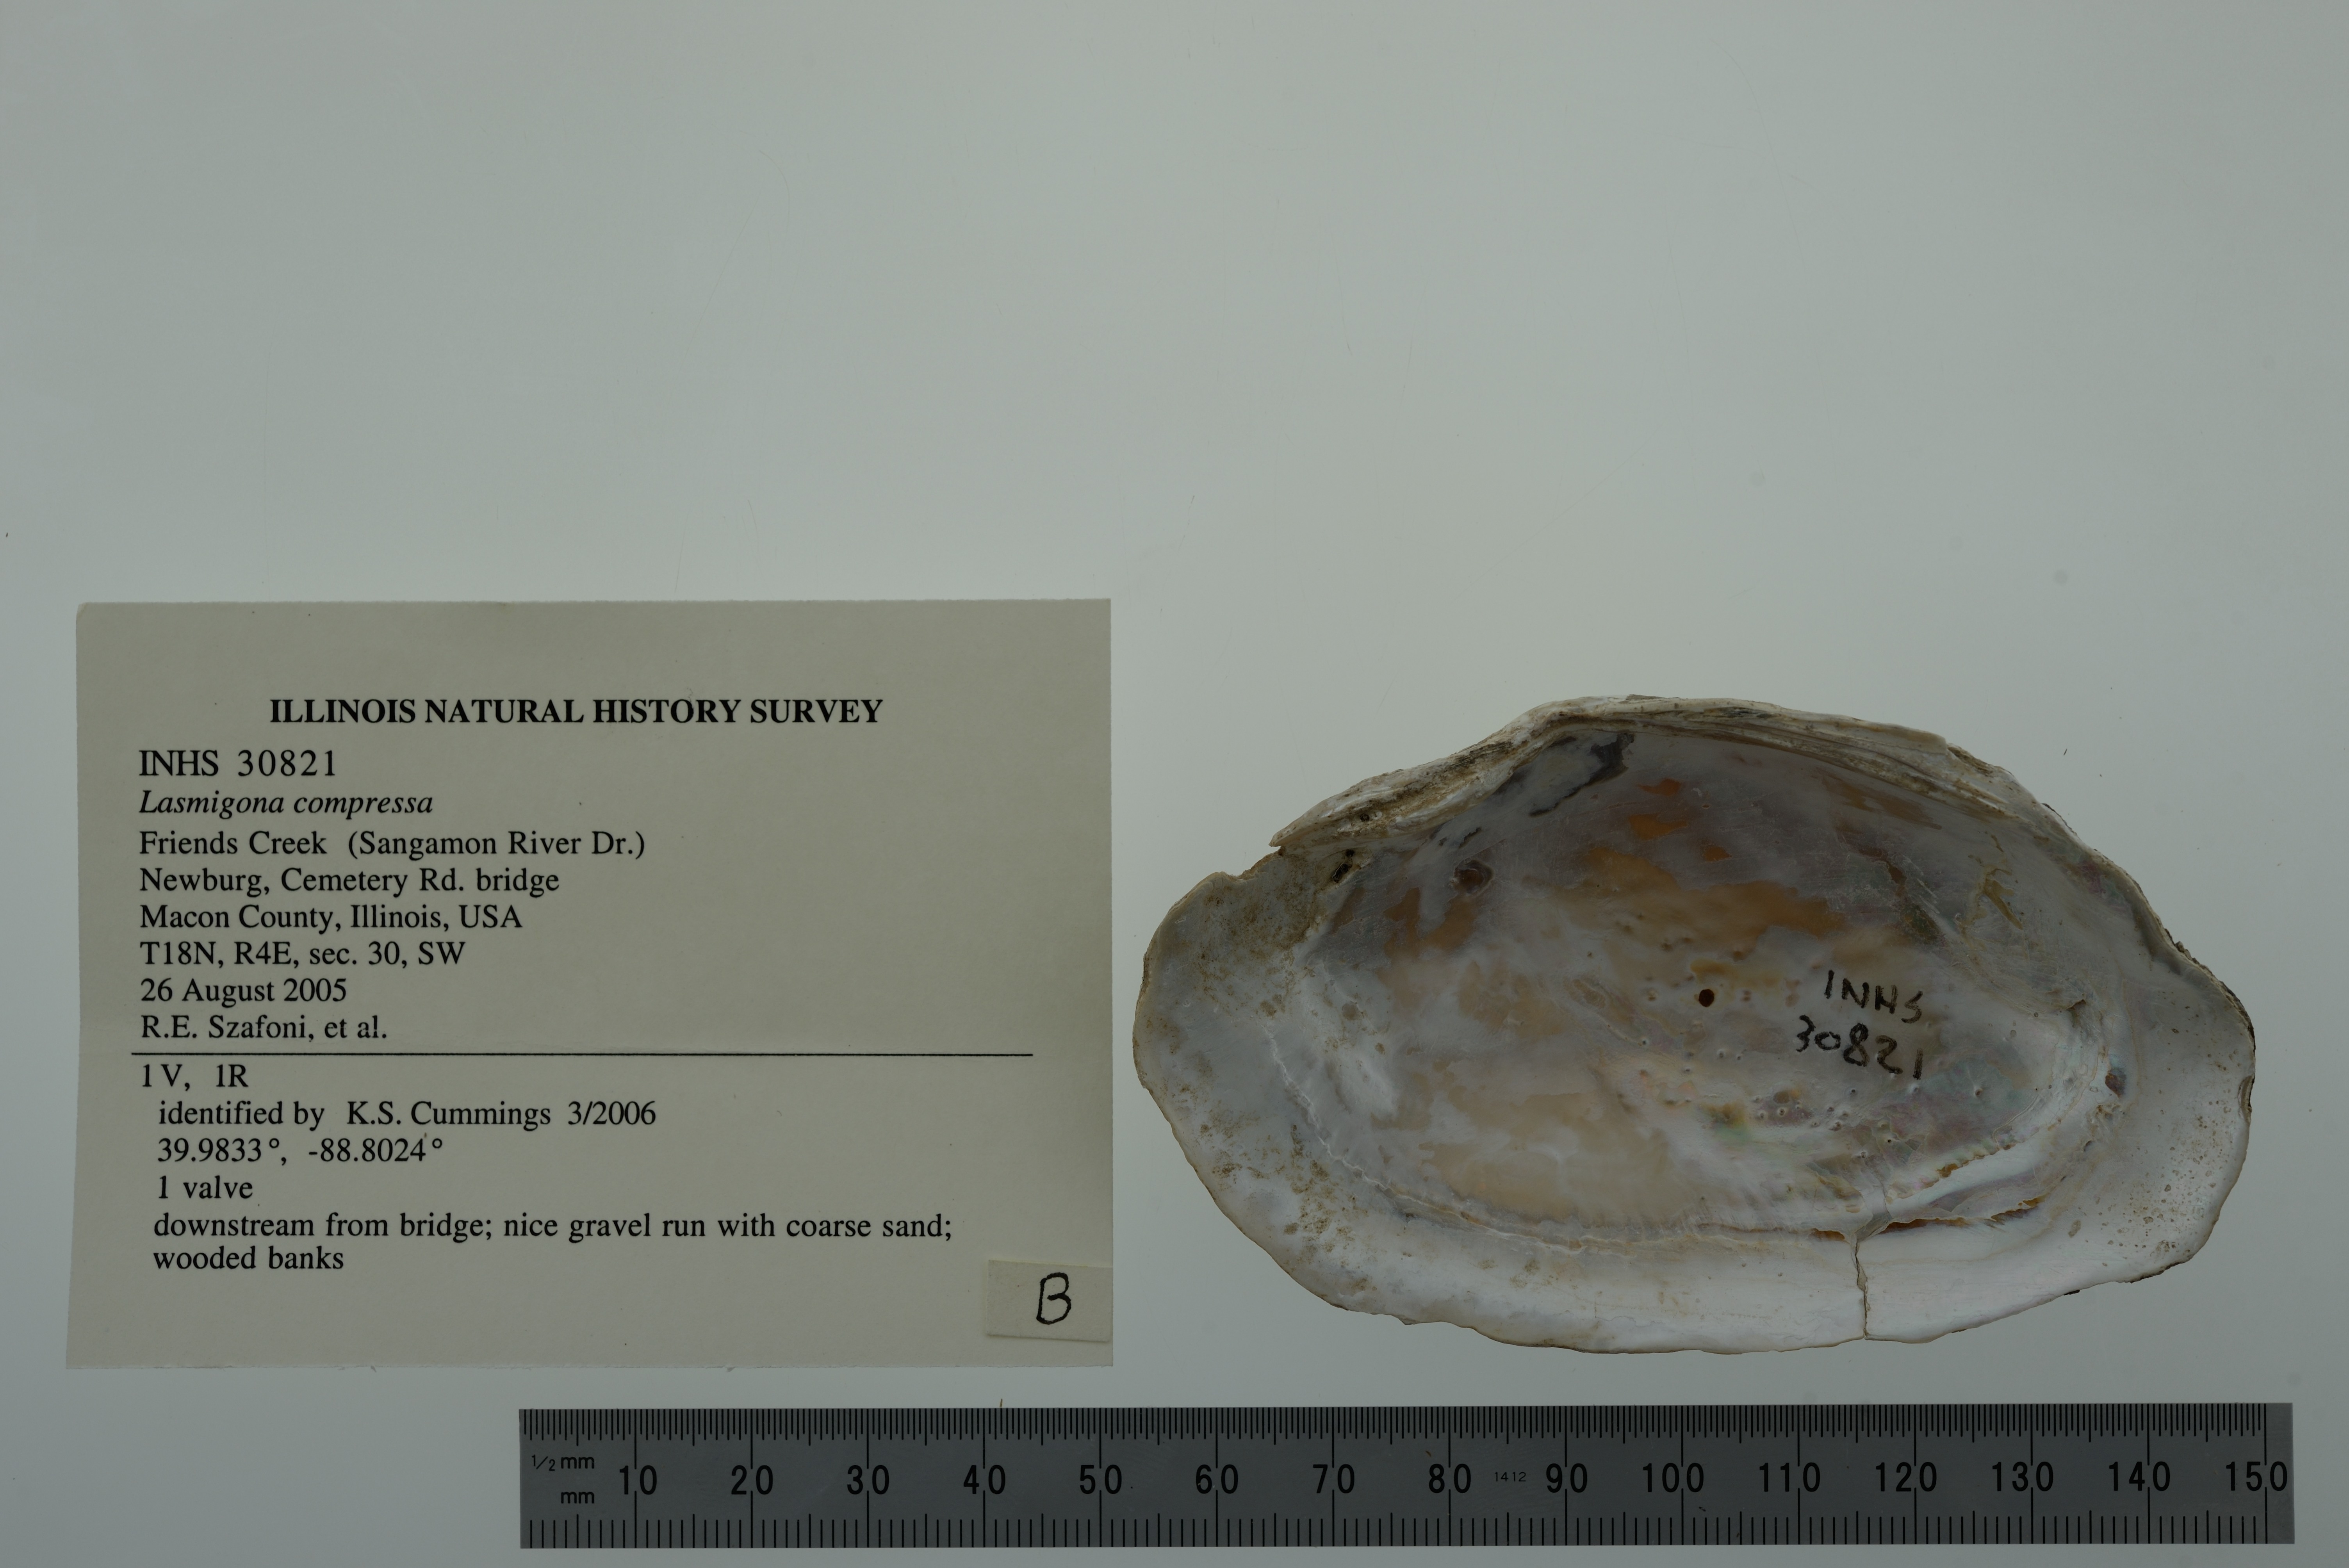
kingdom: Animalia
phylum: Mollusca
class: Bivalvia
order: Unionida
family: Unionidae
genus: Lasmigona
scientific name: Lasmigona compressa
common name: Creek heelsplitter
